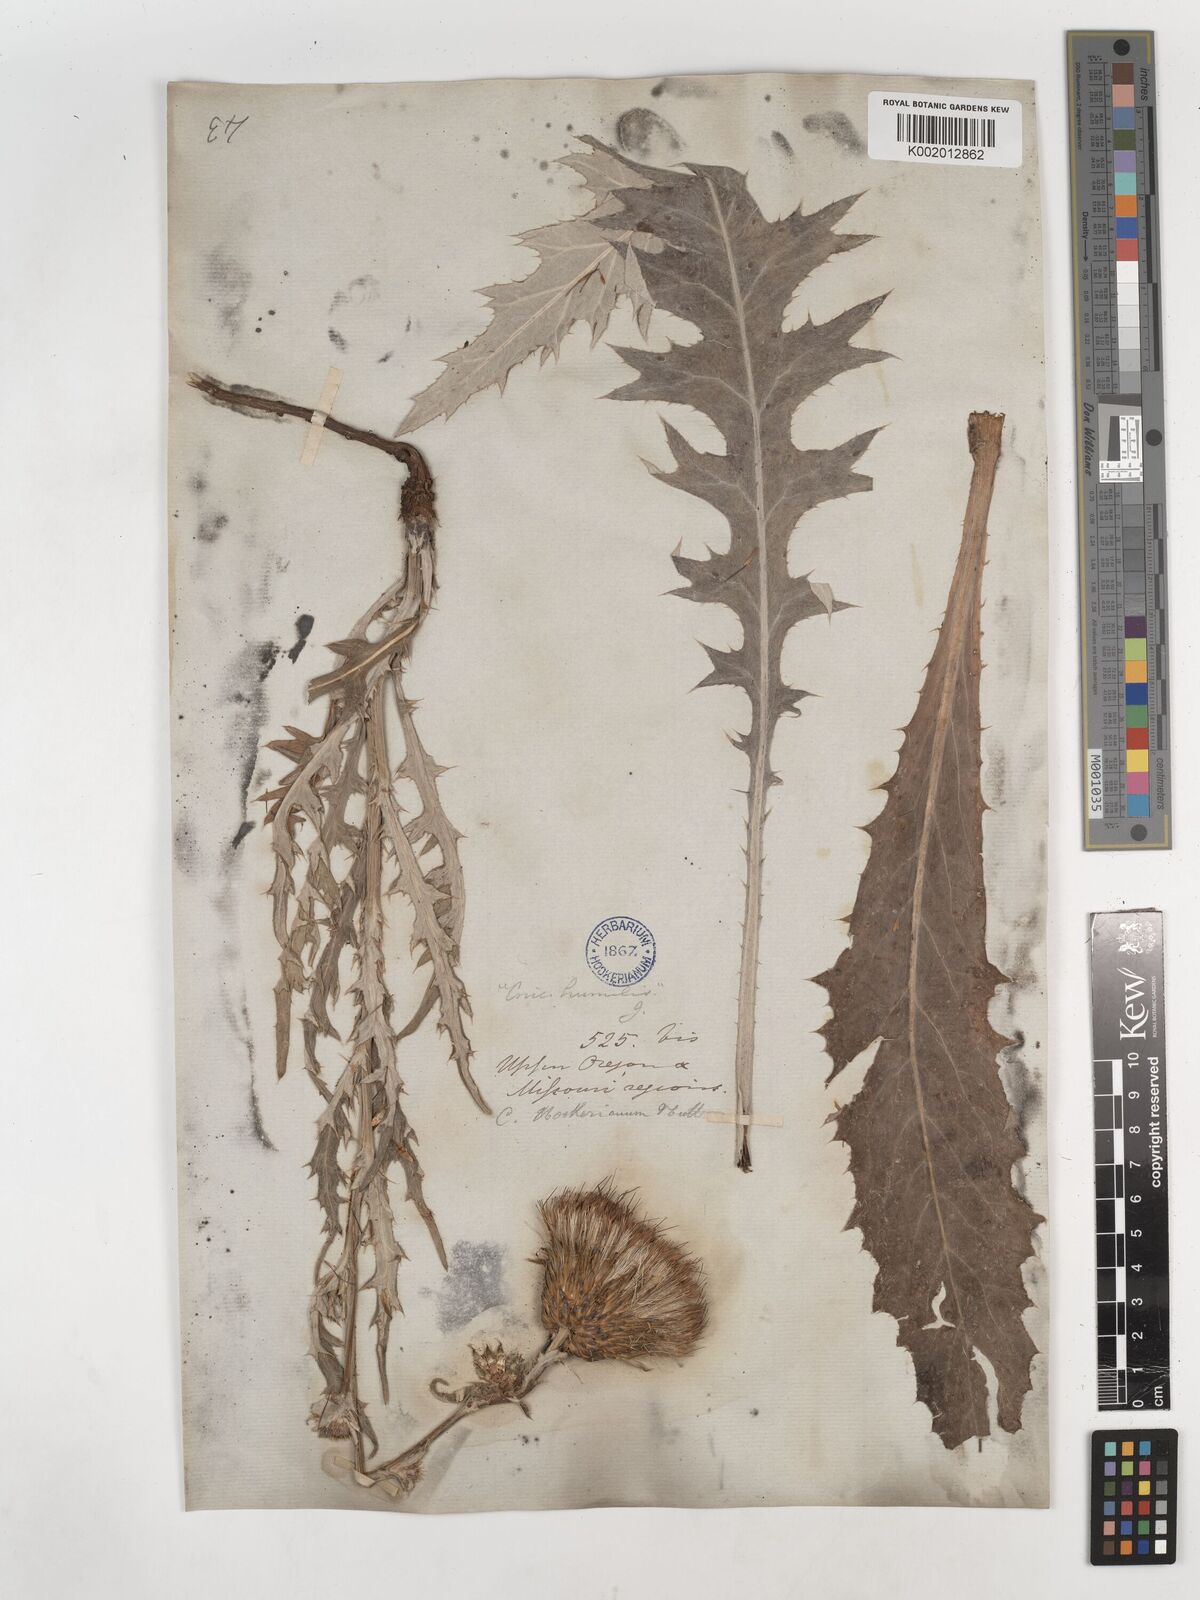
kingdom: Plantae
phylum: Tracheophyta
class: Magnoliopsida
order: Asterales
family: Asteraceae
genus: Cirsium
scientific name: Cirsium hookerianum
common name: Hooker's thistle
